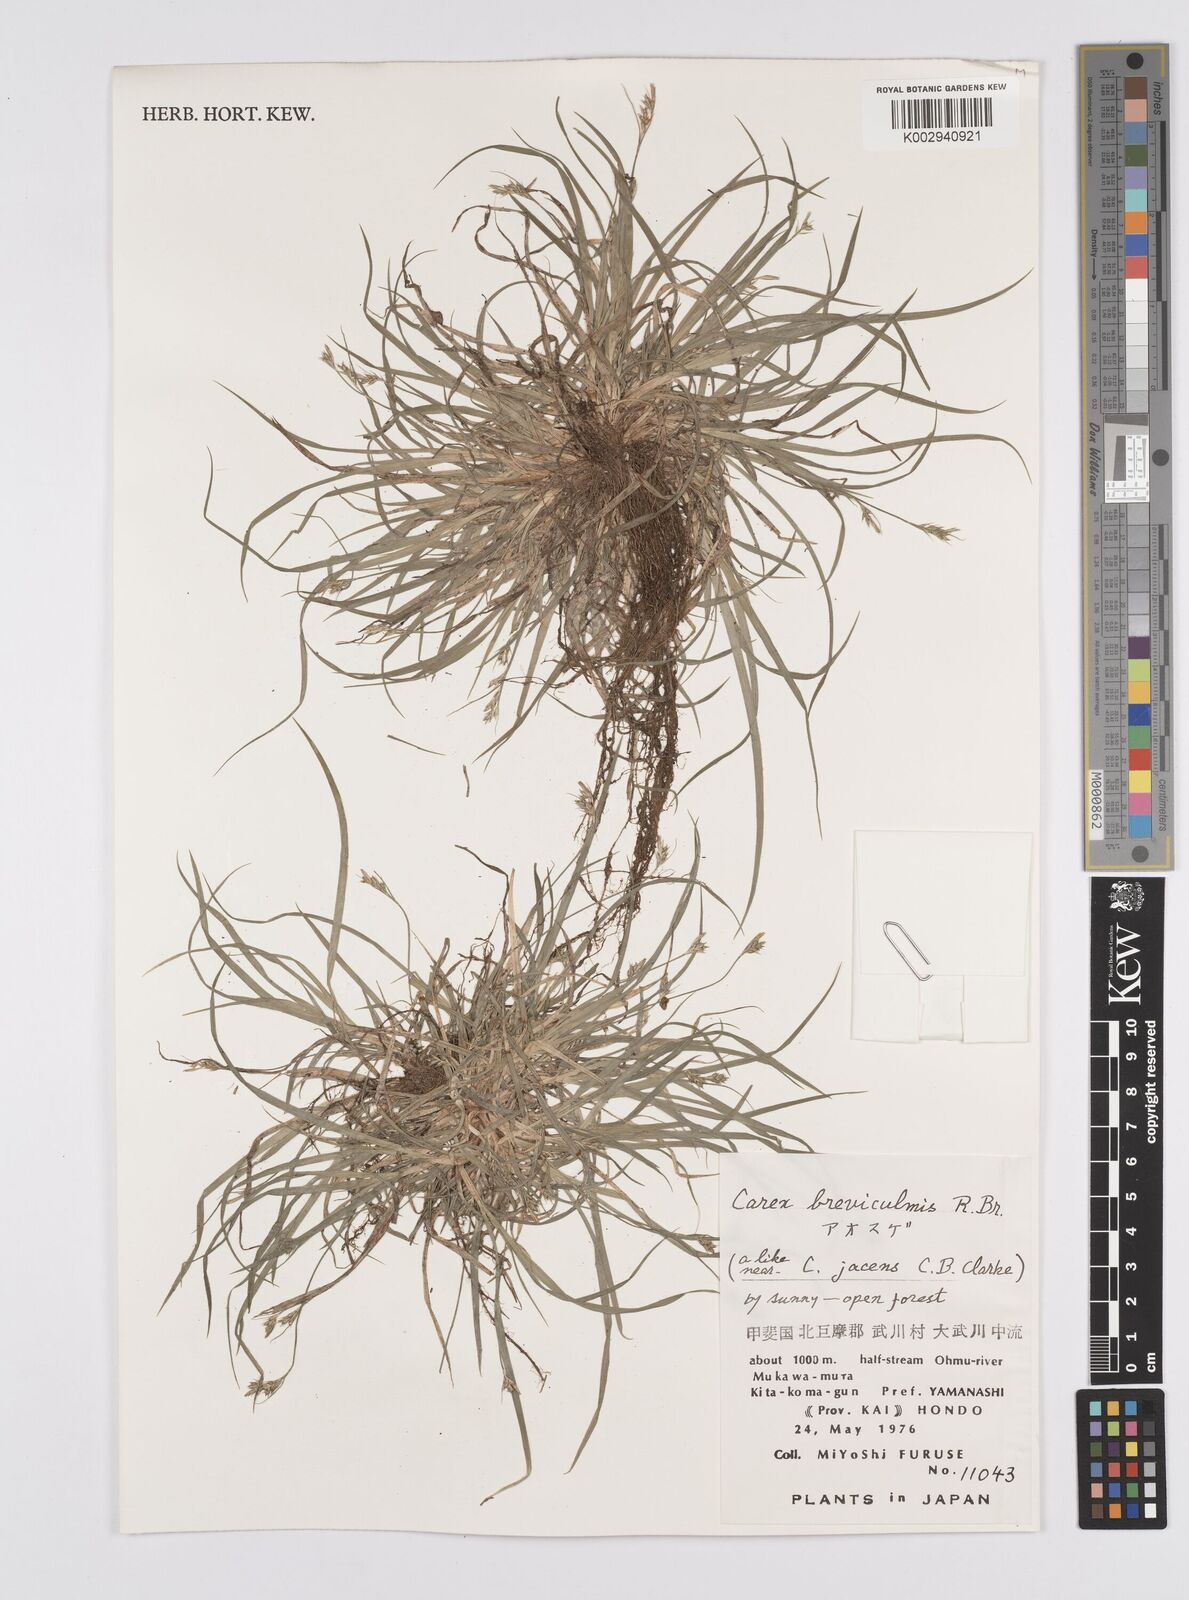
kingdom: Plantae
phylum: Tracheophyta
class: Liliopsida
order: Poales
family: Cyperaceae
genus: Carex
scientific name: Carex breviculmis
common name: Asian shortstem sedge
